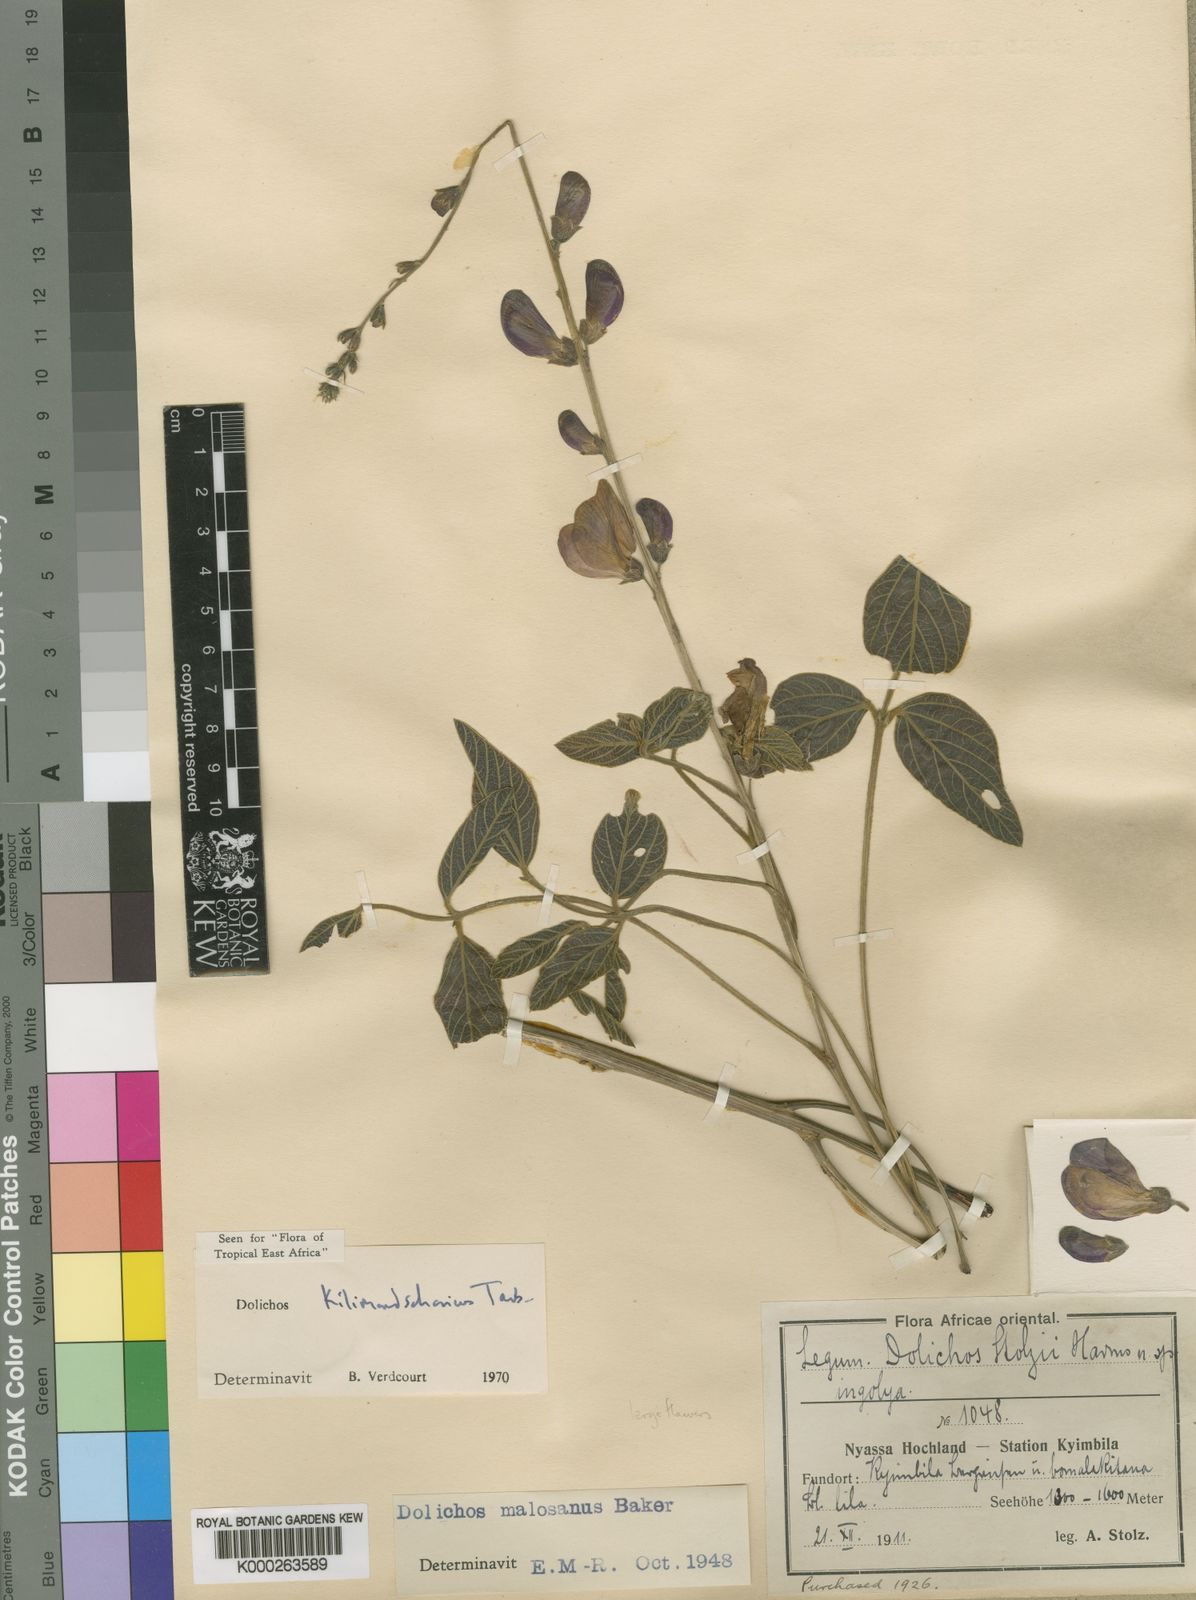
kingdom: Plantae
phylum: Tracheophyta
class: Magnoliopsida
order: Fabales
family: Fabaceae
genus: Dolichos
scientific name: Dolichos kilimandscharicus
